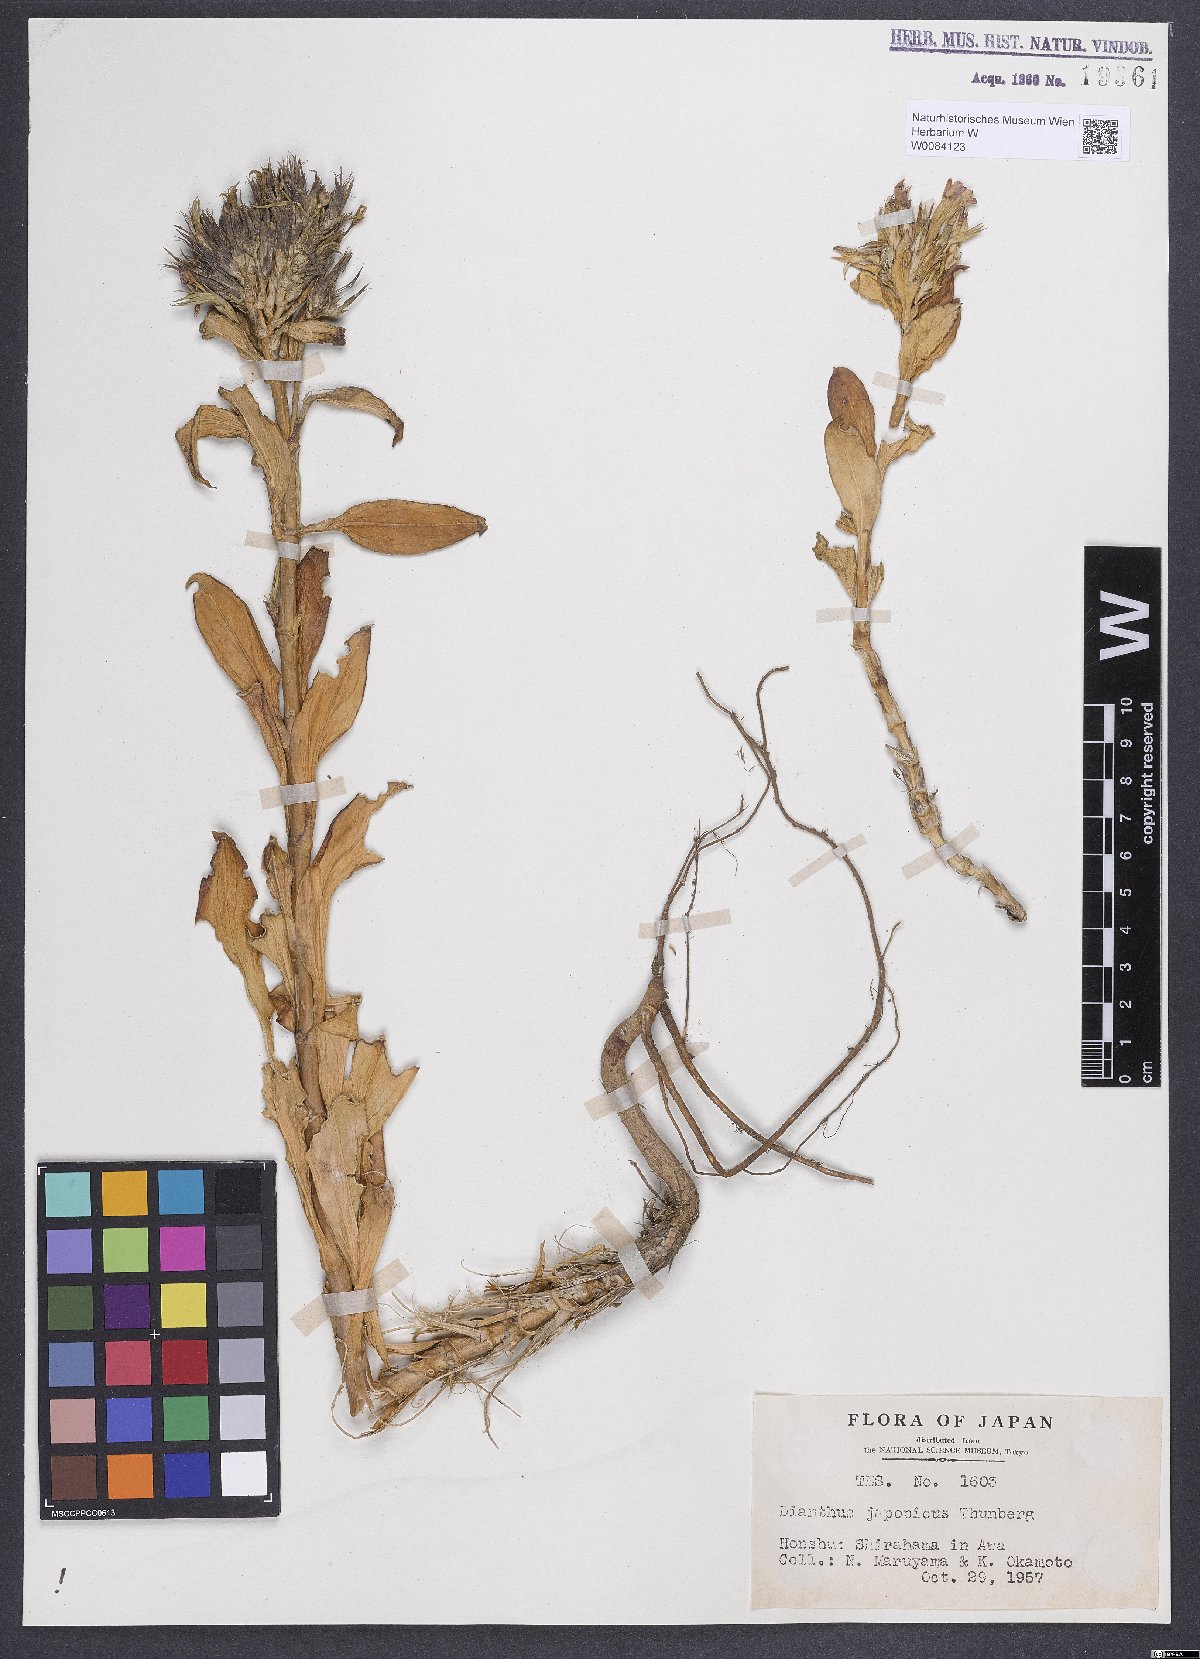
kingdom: Plantae
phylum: Tracheophyta
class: Magnoliopsida
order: Caryophyllales
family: Caryophyllaceae
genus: Dianthus
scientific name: Dianthus japonicus
